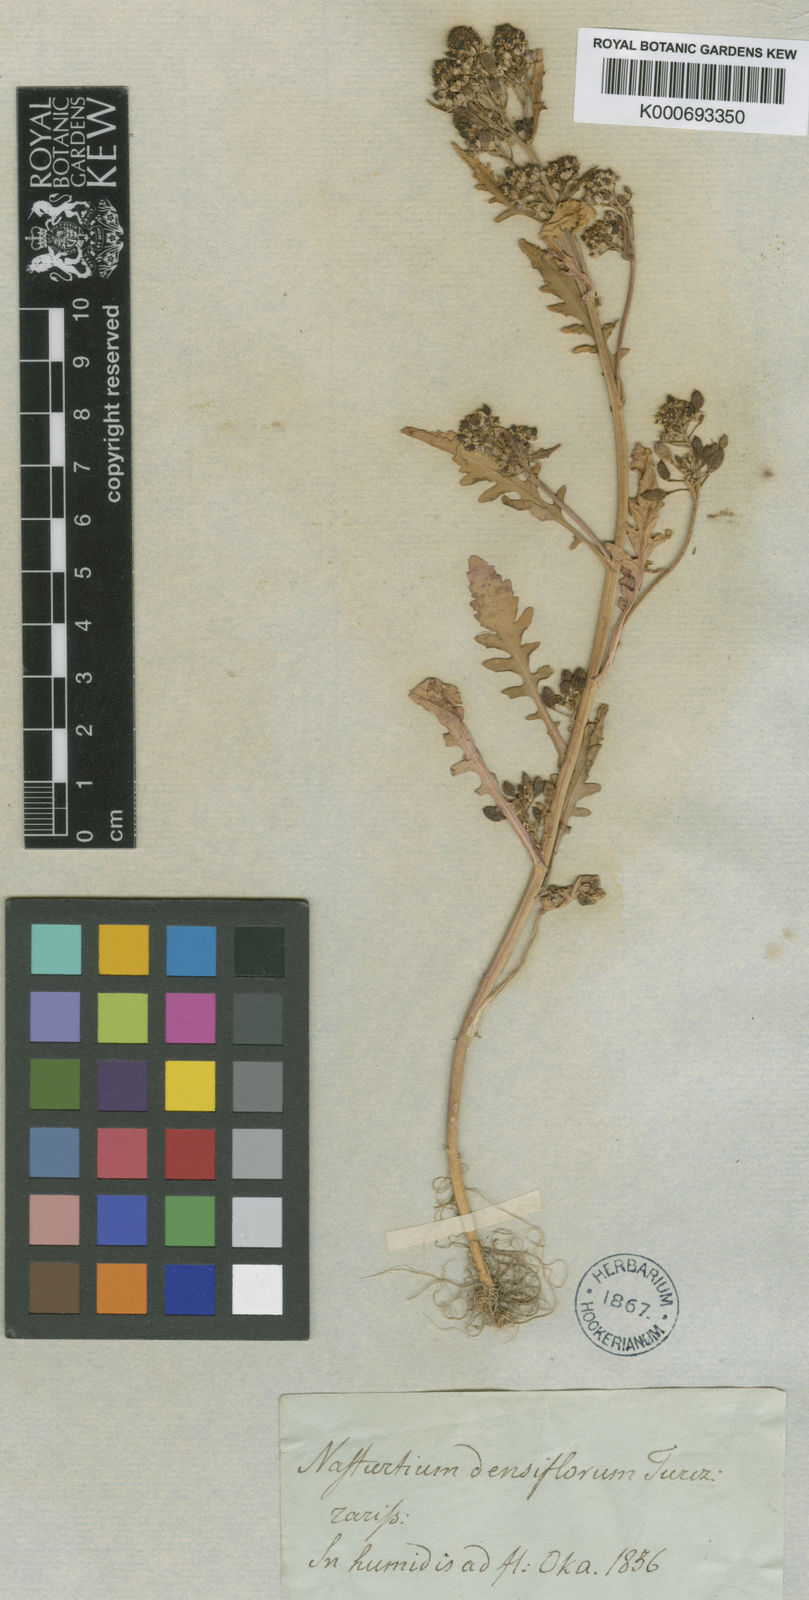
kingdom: Plantae
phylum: Tracheophyta
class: Magnoliopsida
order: Brassicales
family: Brassicaceae
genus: Rorippa
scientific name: Rorippa
